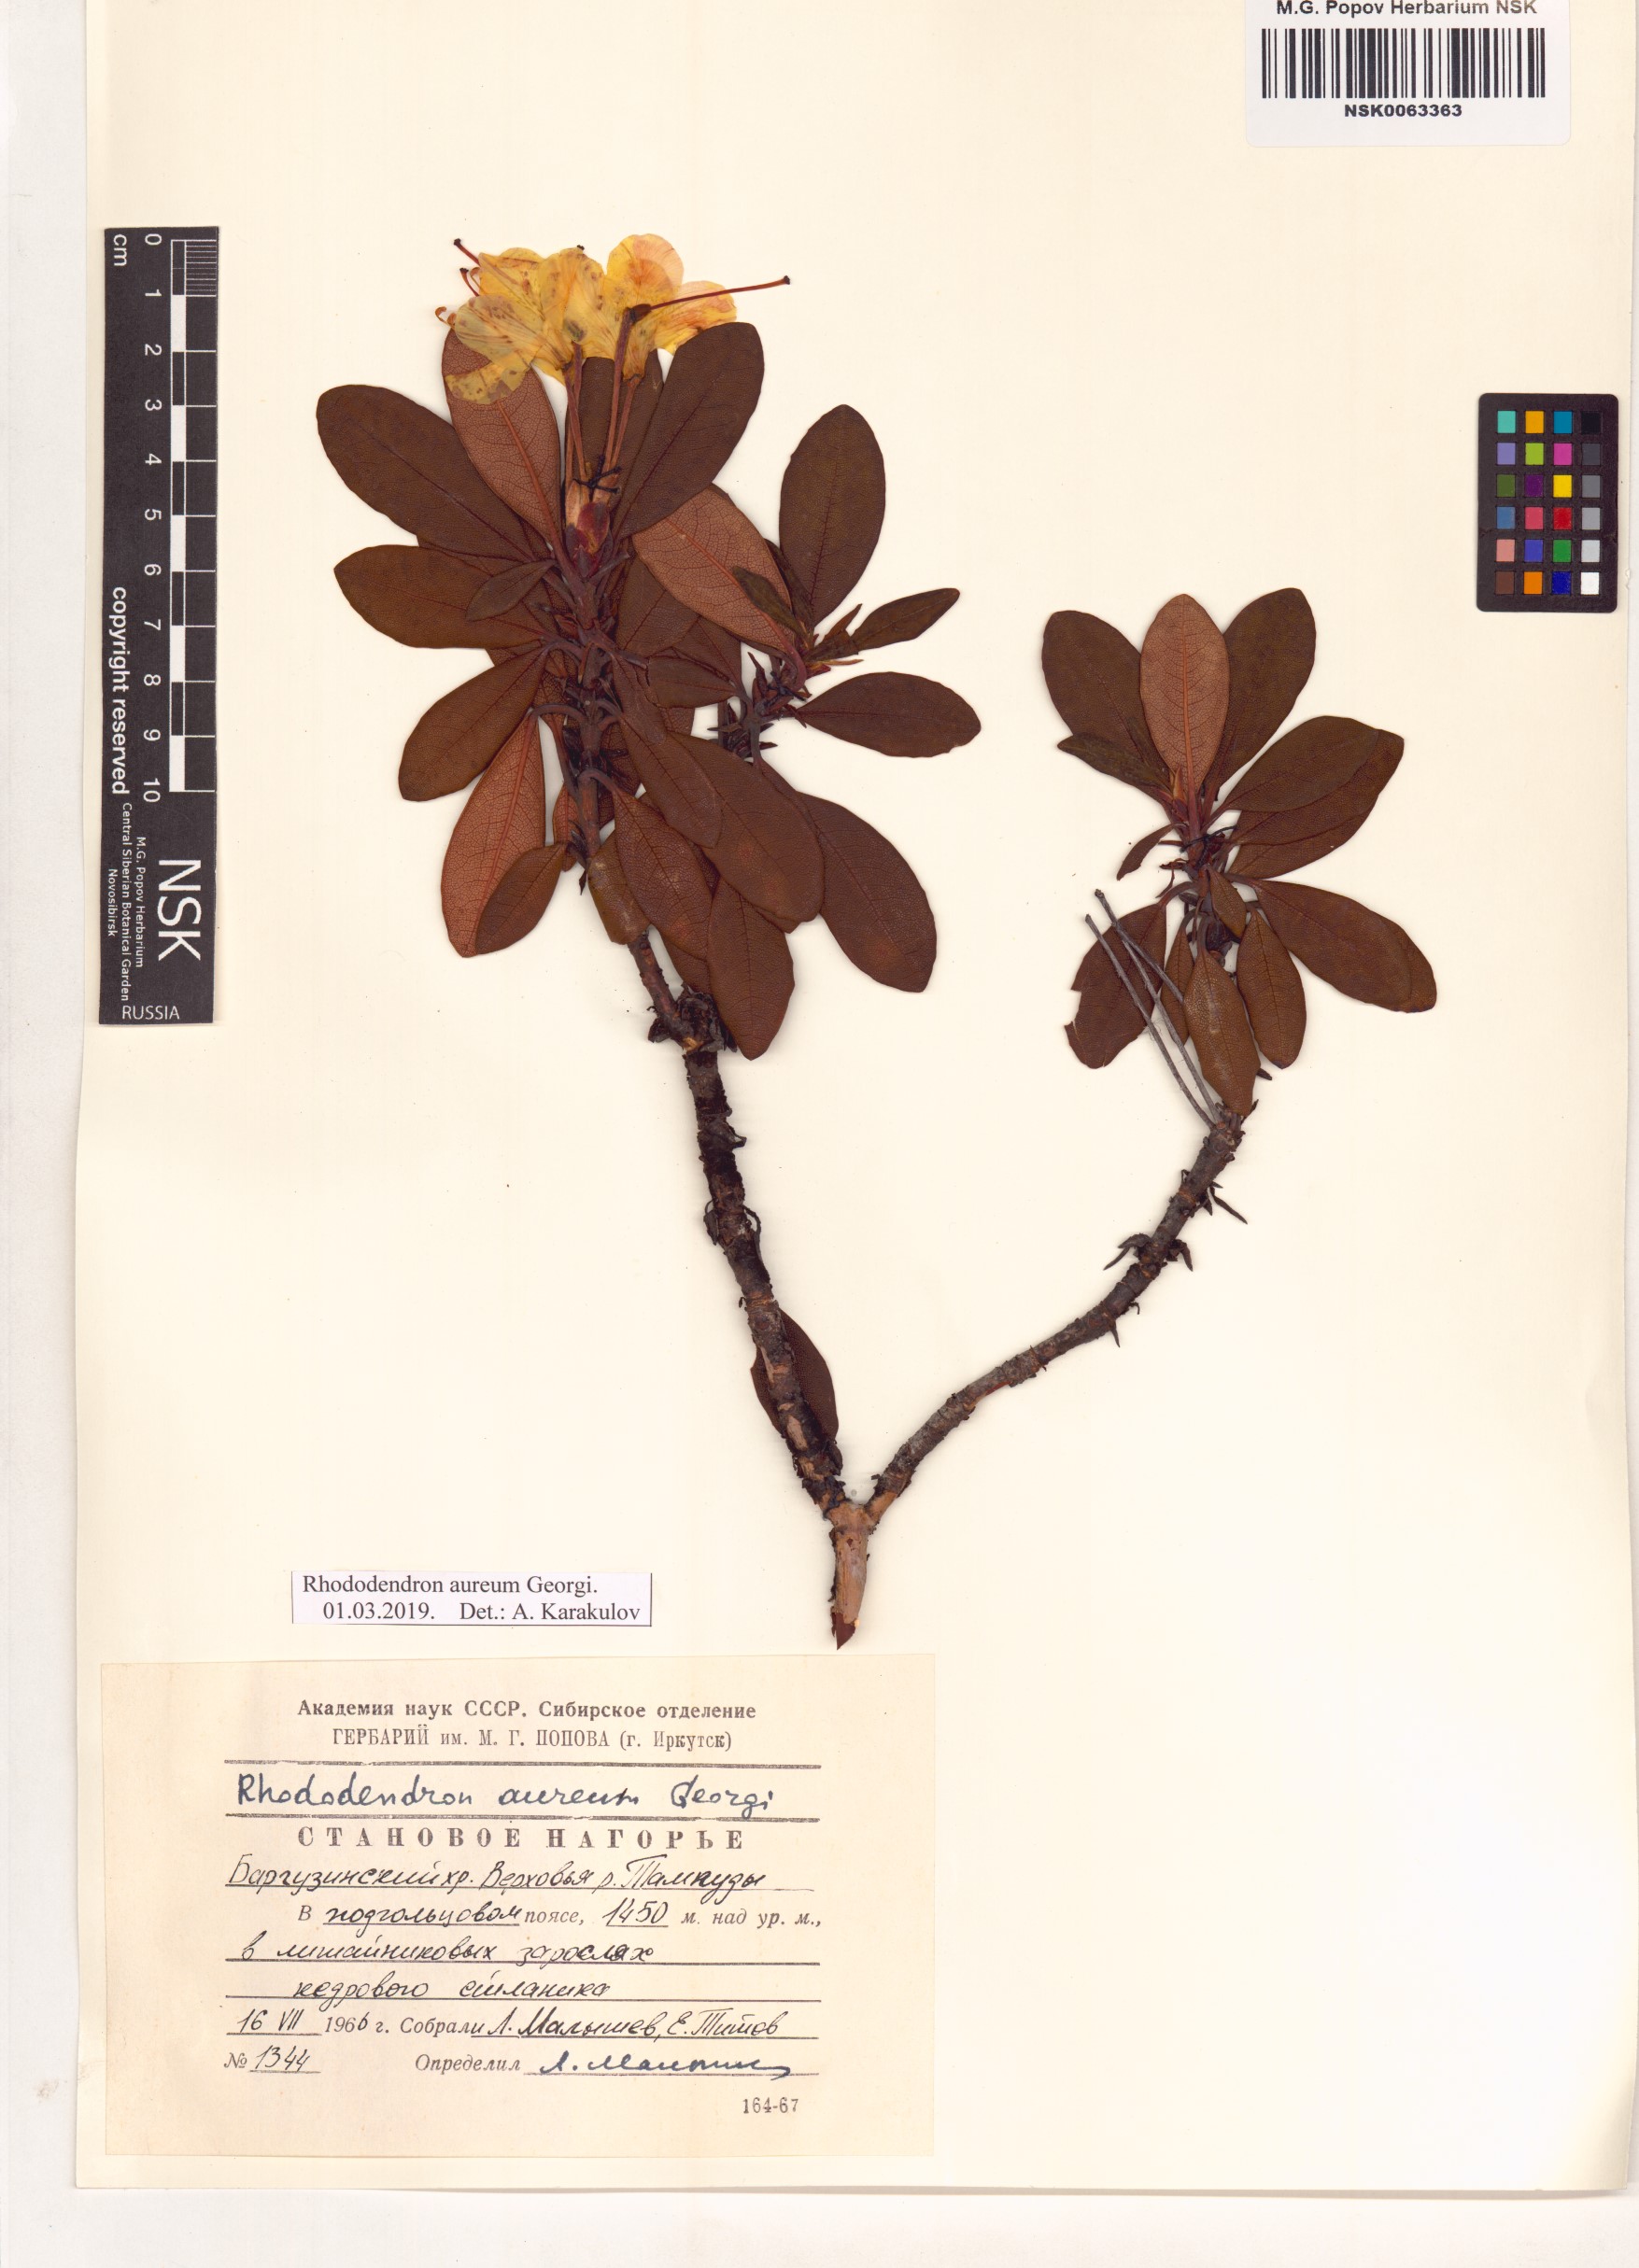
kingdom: Plantae
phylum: Tracheophyta
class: Magnoliopsida
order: Ericales
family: Ericaceae
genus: Rhododendron
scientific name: Rhododendron aureum
